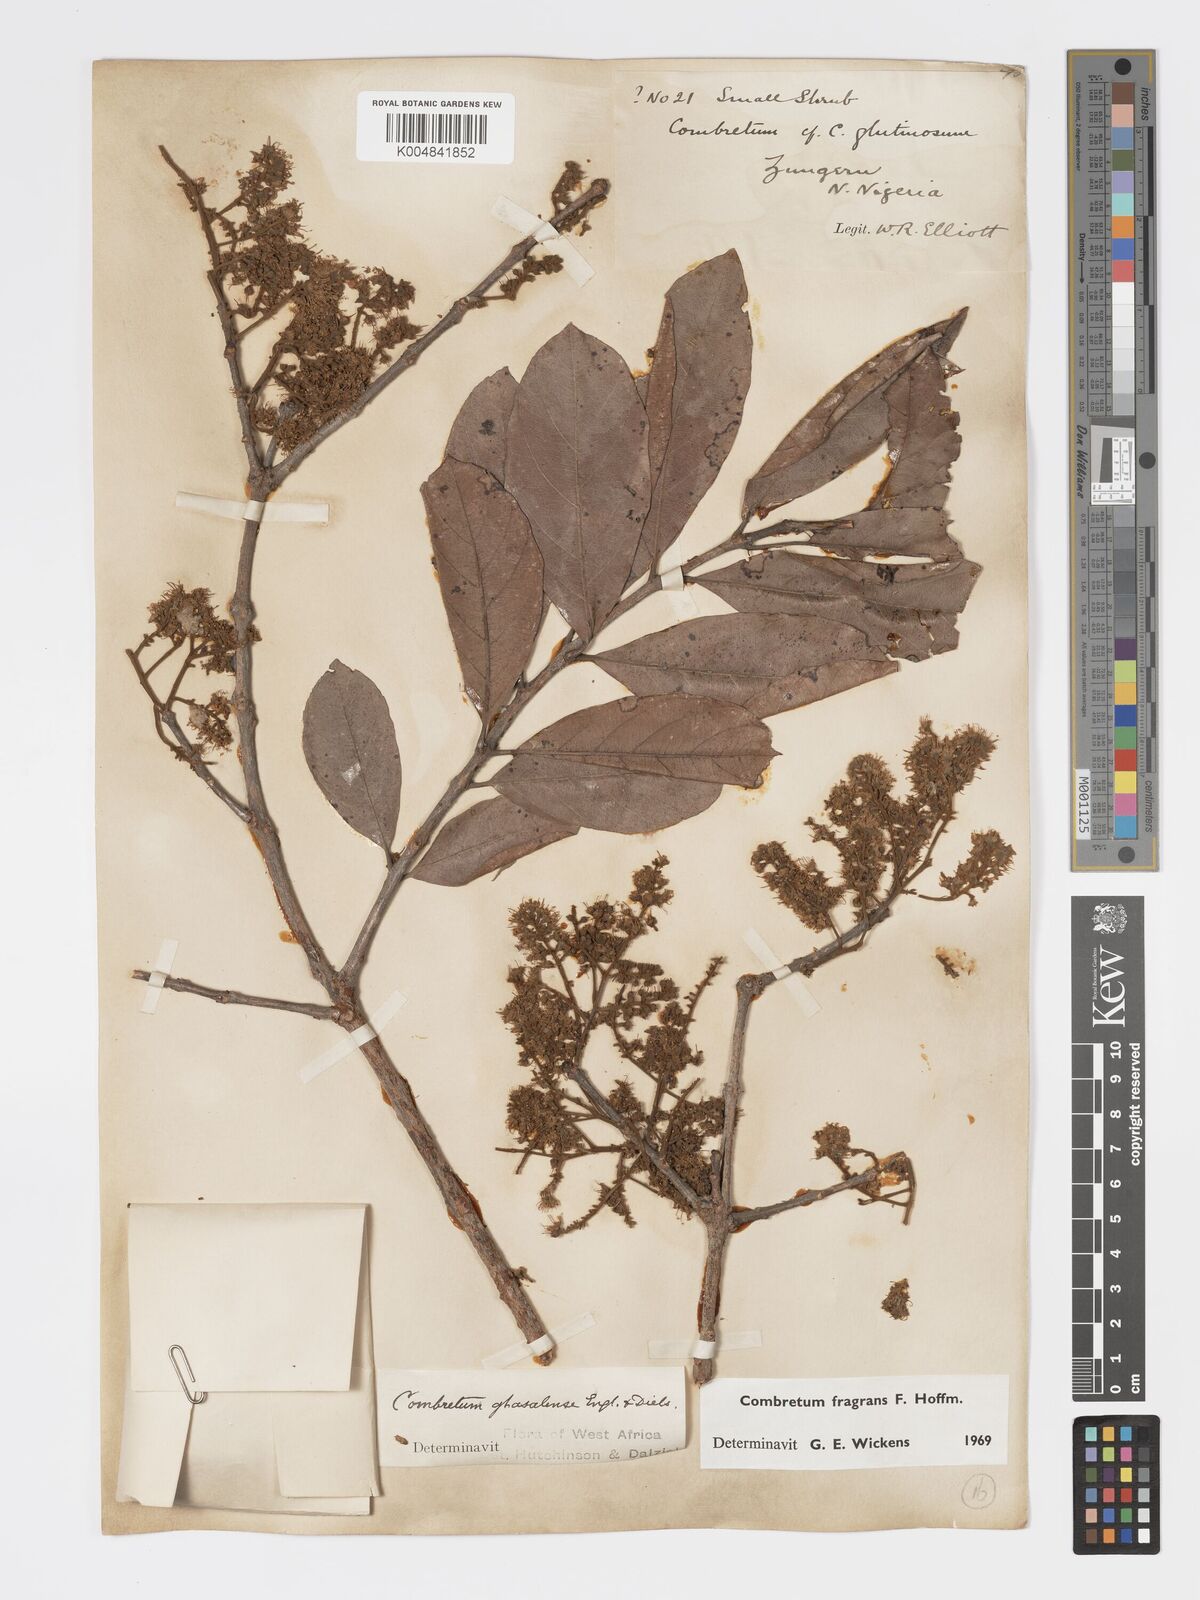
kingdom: Plantae
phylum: Tracheophyta
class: Magnoliopsida
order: Myrtales
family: Combretaceae
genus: Combretum
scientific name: Combretum adenogonium
